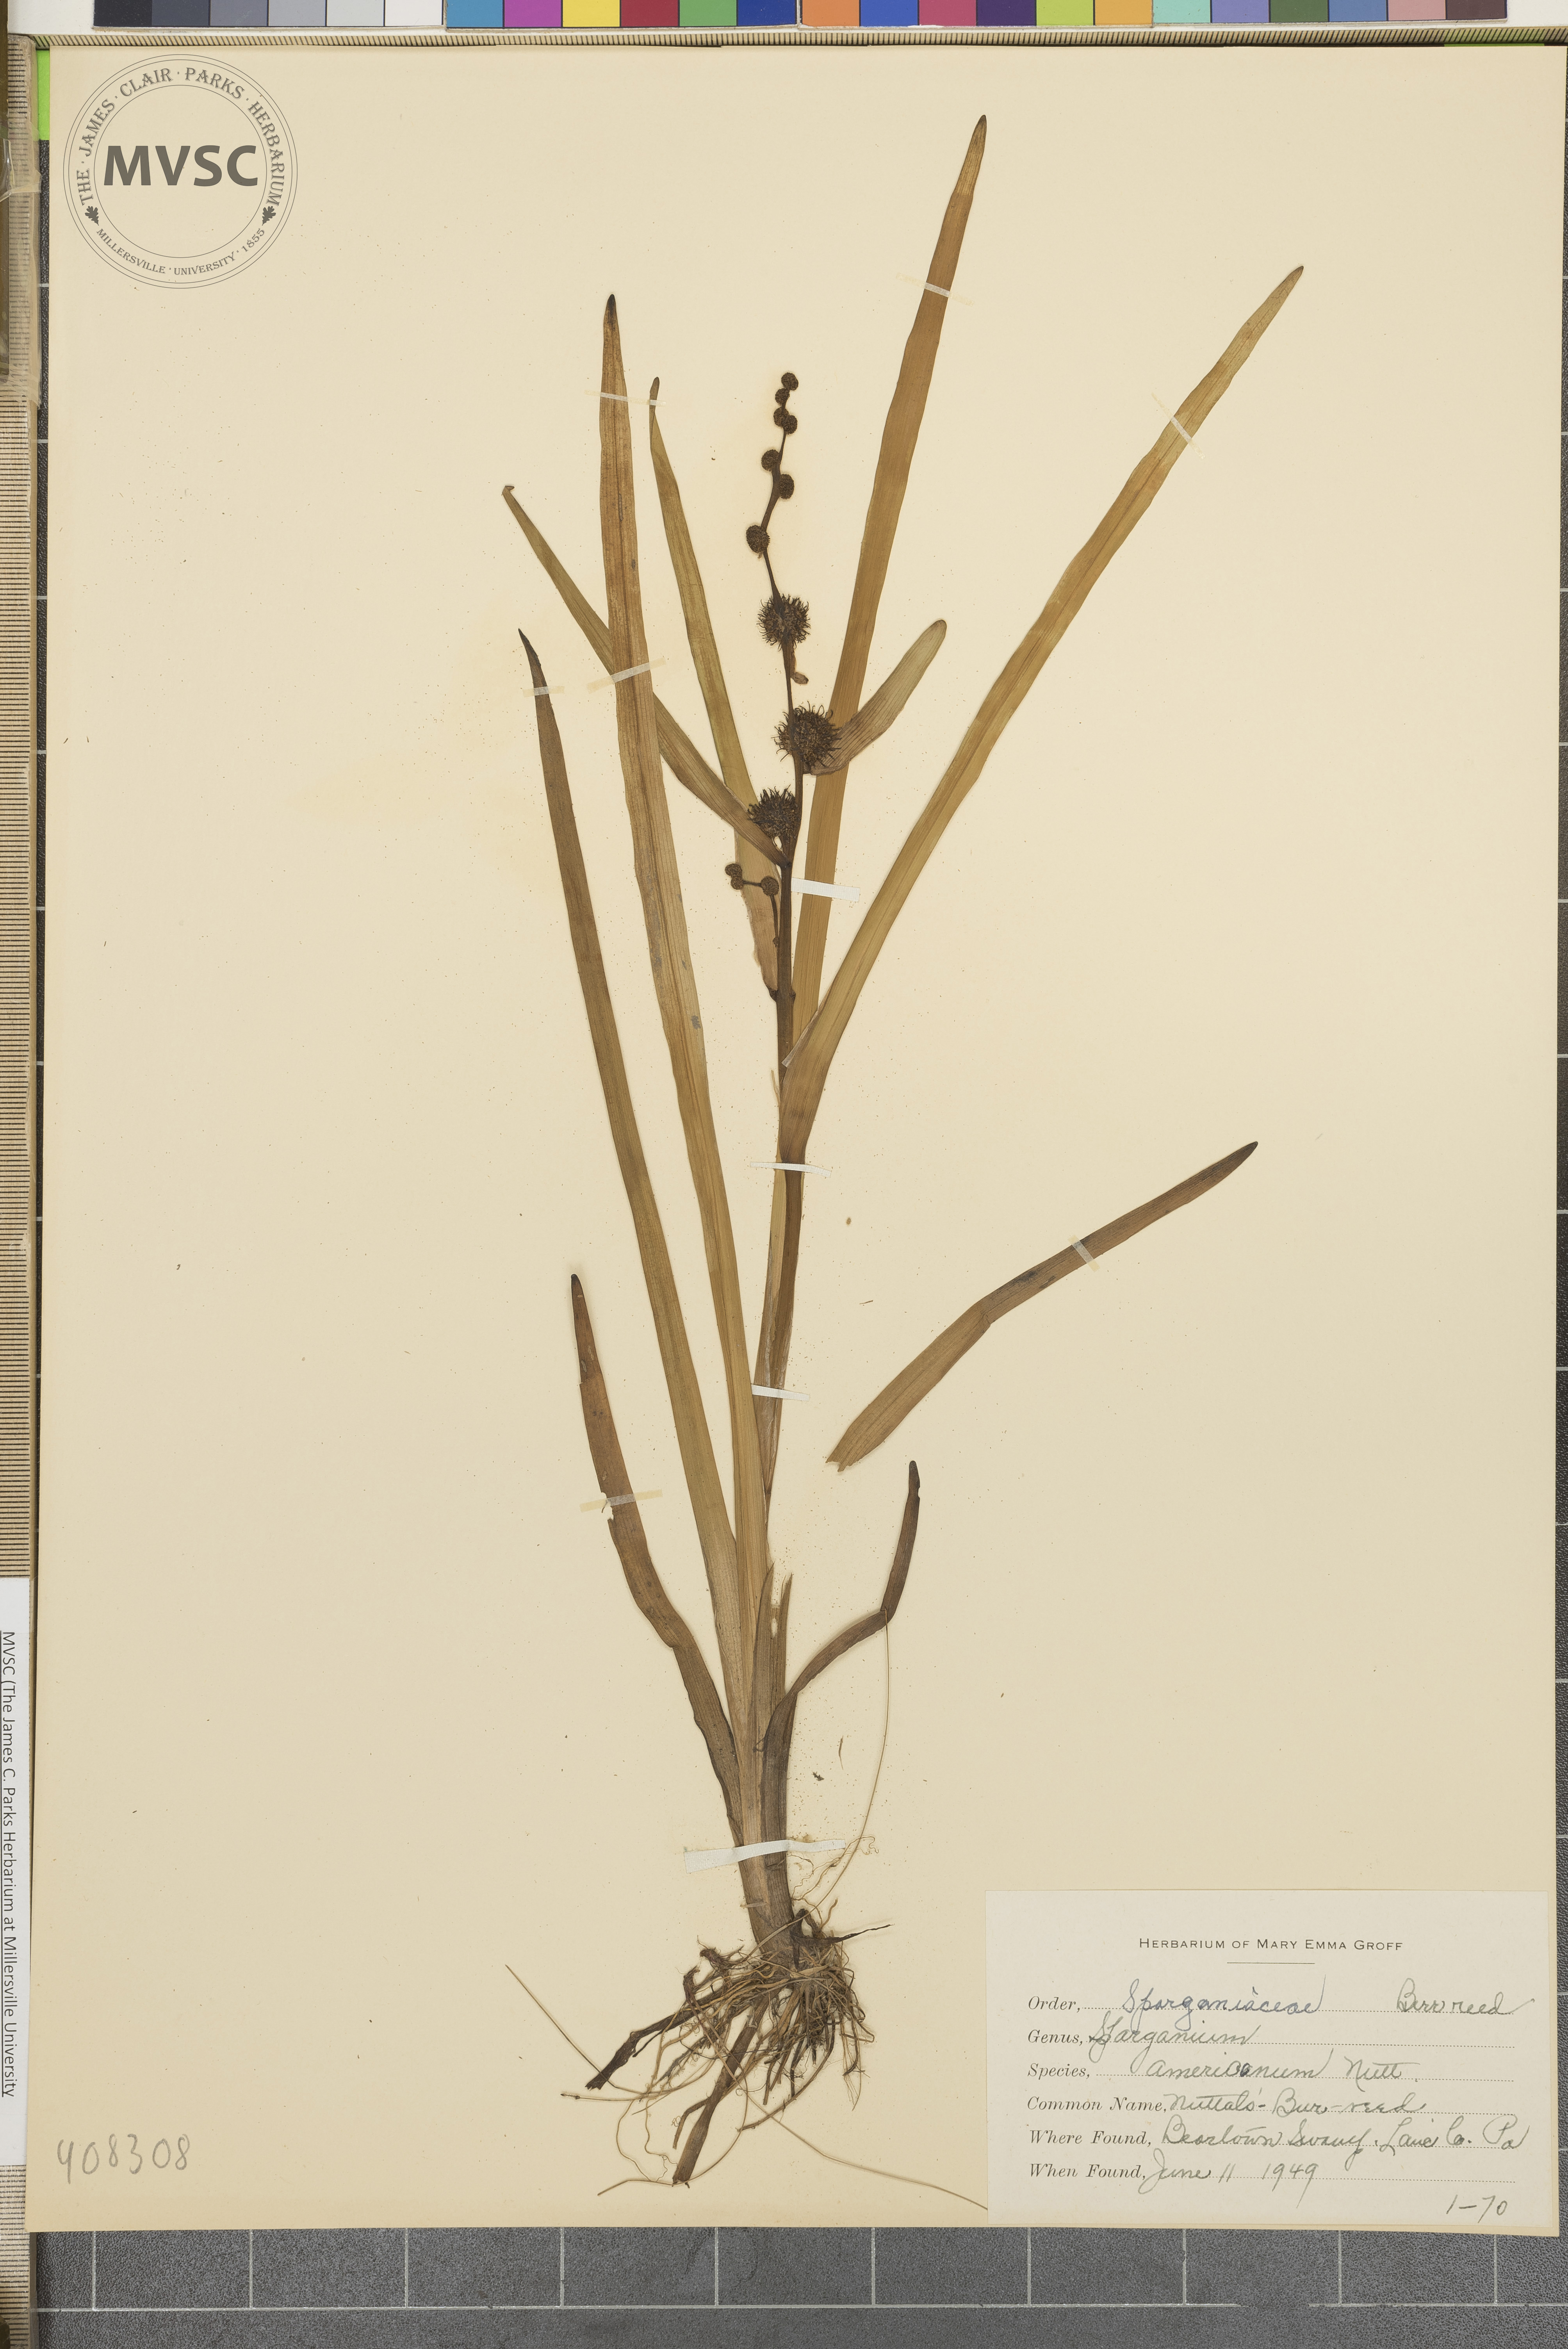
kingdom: Plantae
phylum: Tracheophyta
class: Liliopsida
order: Poales
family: Typhaceae
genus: Sparganium
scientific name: Sparganium americanum
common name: American burreed
